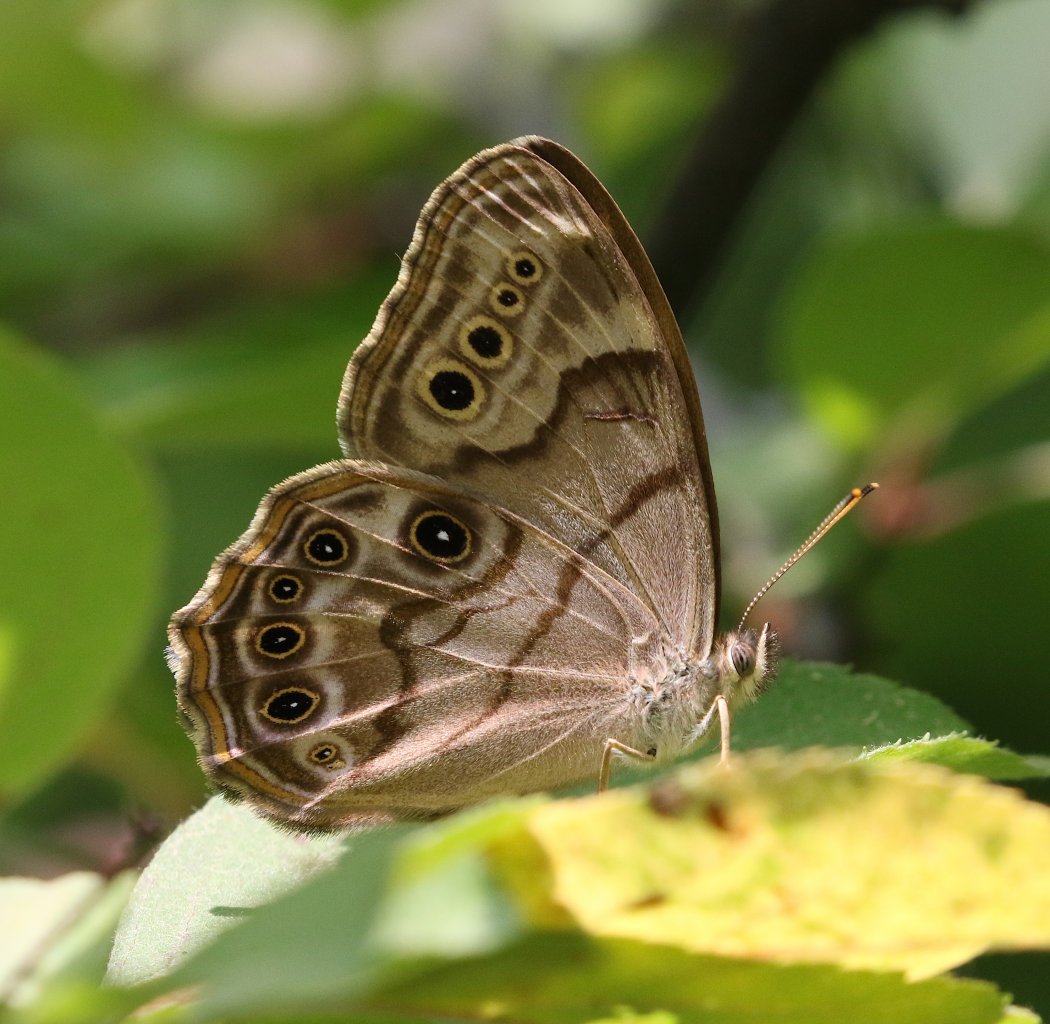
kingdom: Animalia
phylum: Arthropoda
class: Insecta
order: Lepidoptera
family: Nymphalidae
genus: Lethe
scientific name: Lethe anthedon
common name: Northern Pearly-Eye
